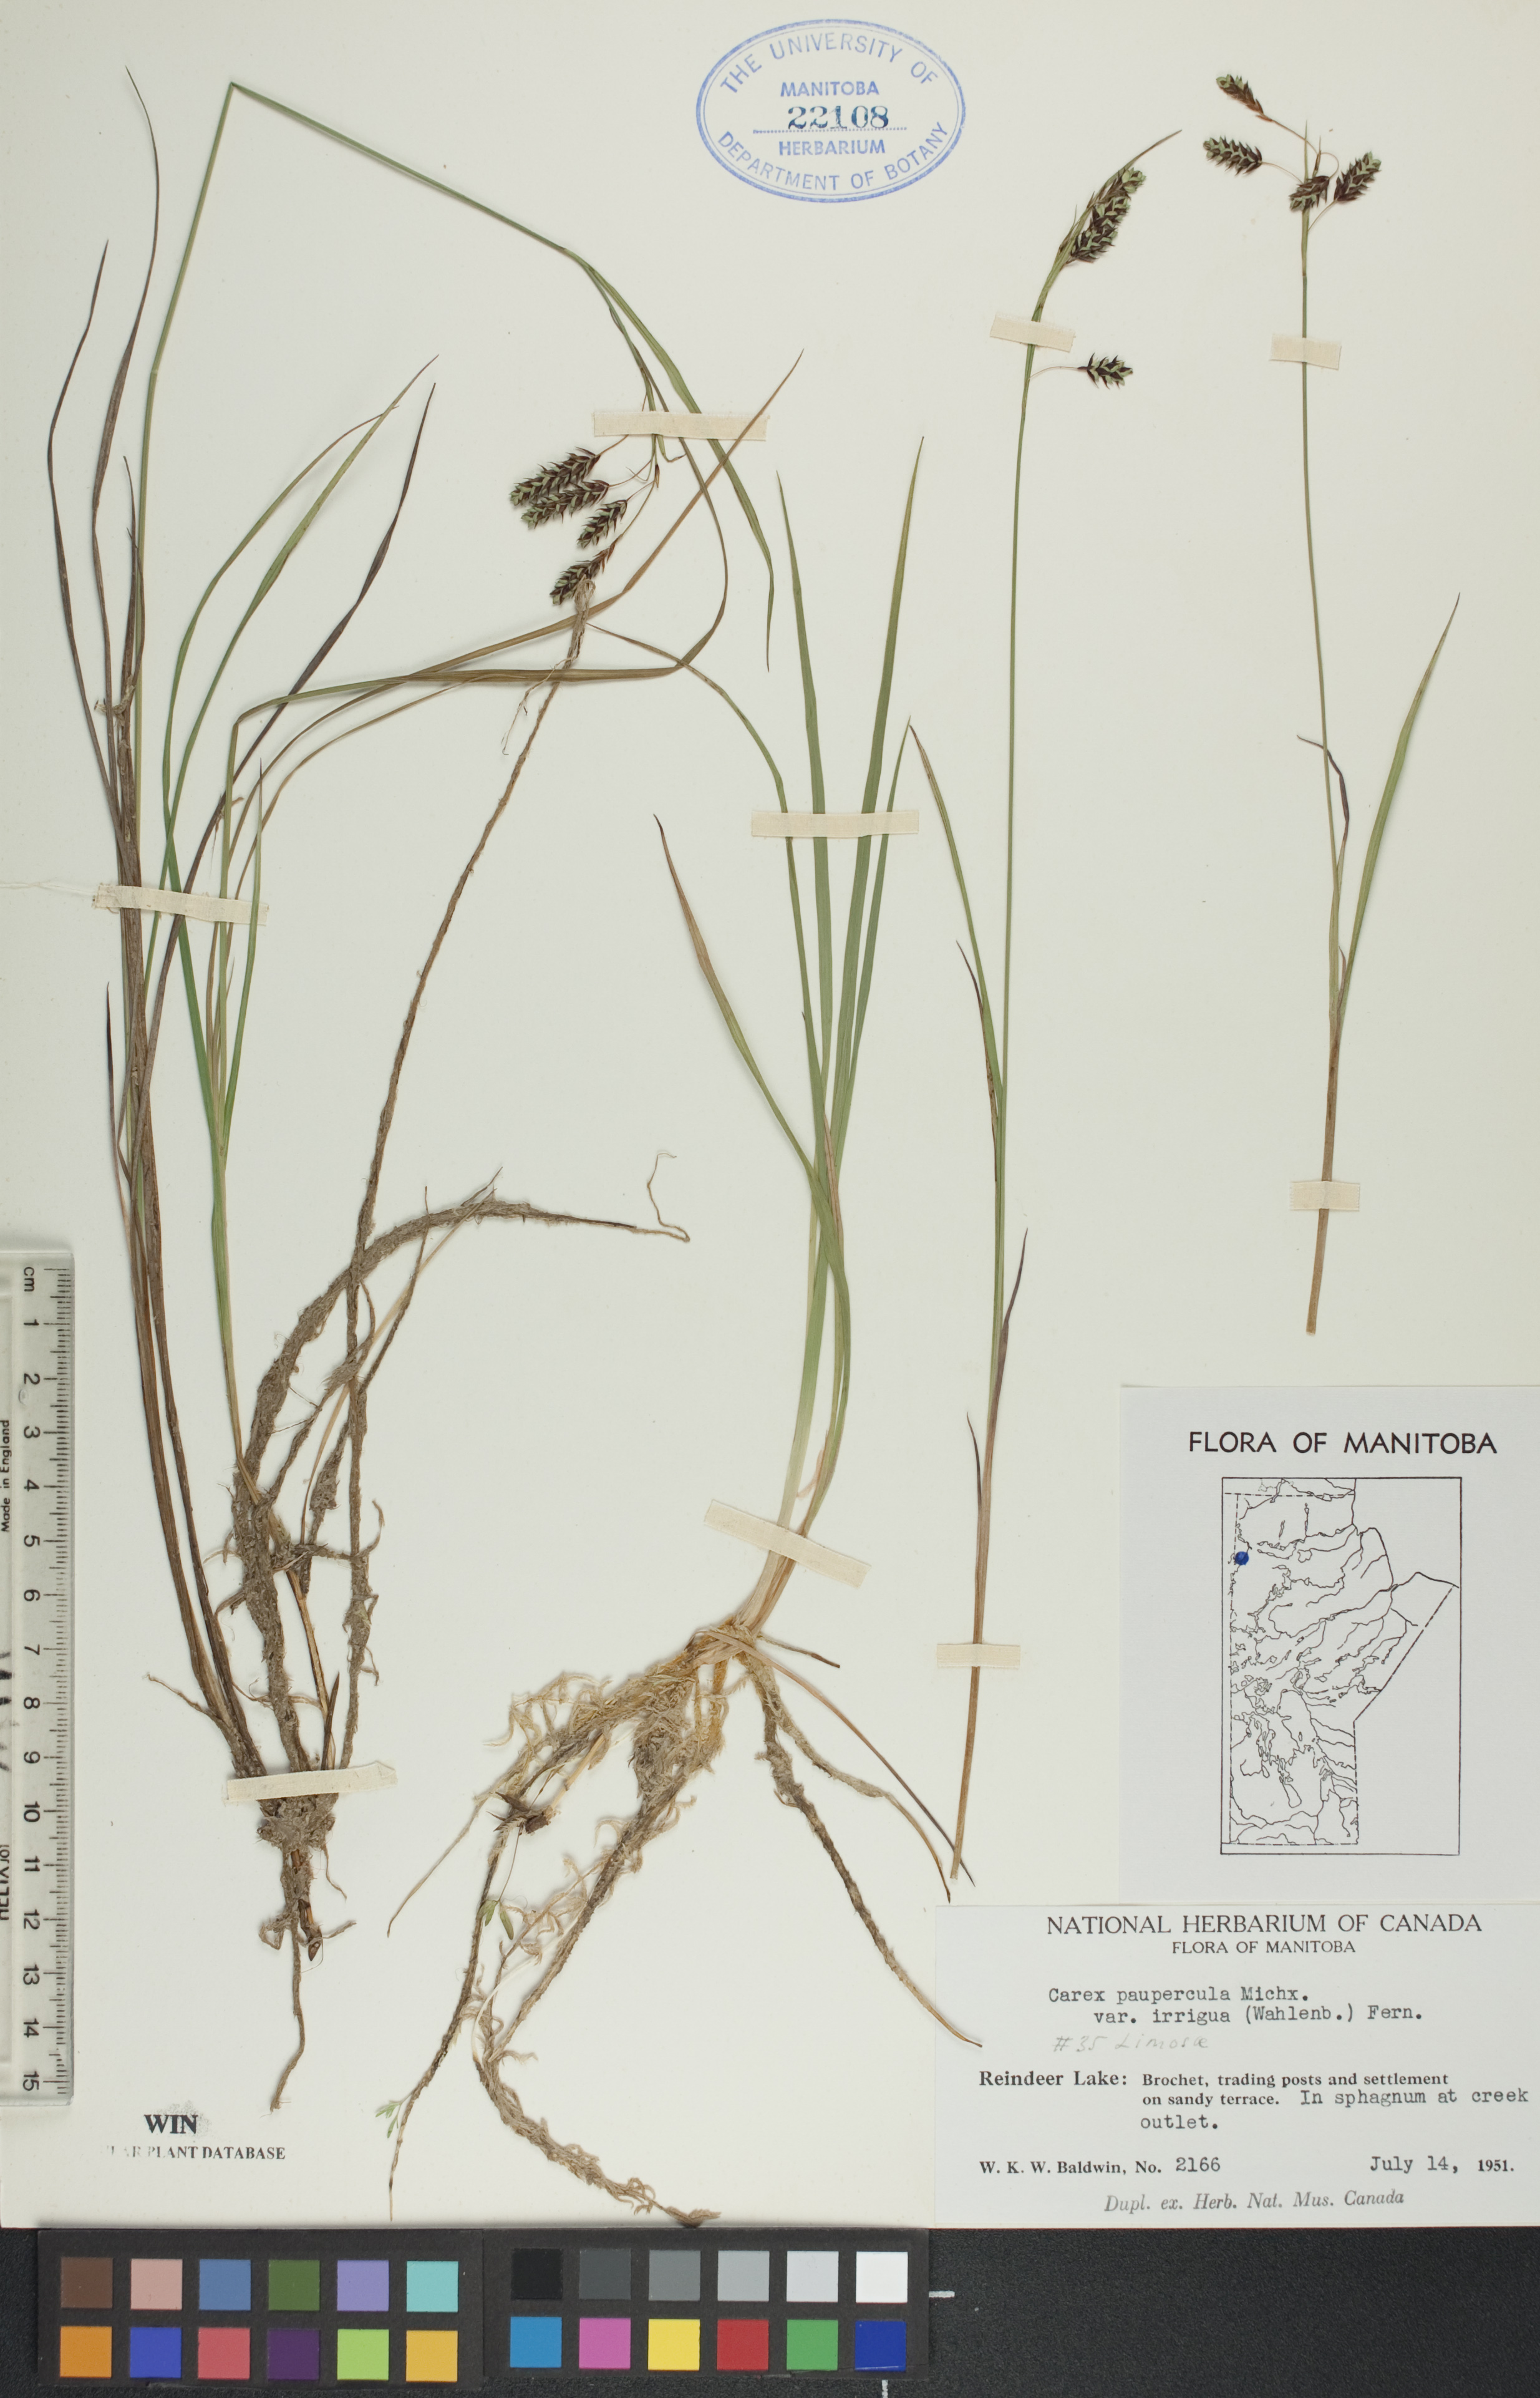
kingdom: Plantae
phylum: Tracheophyta
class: Liliopsida
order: Poales
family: Cyperaceae
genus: Carex
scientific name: Carex magellanica
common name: Bog sedge
